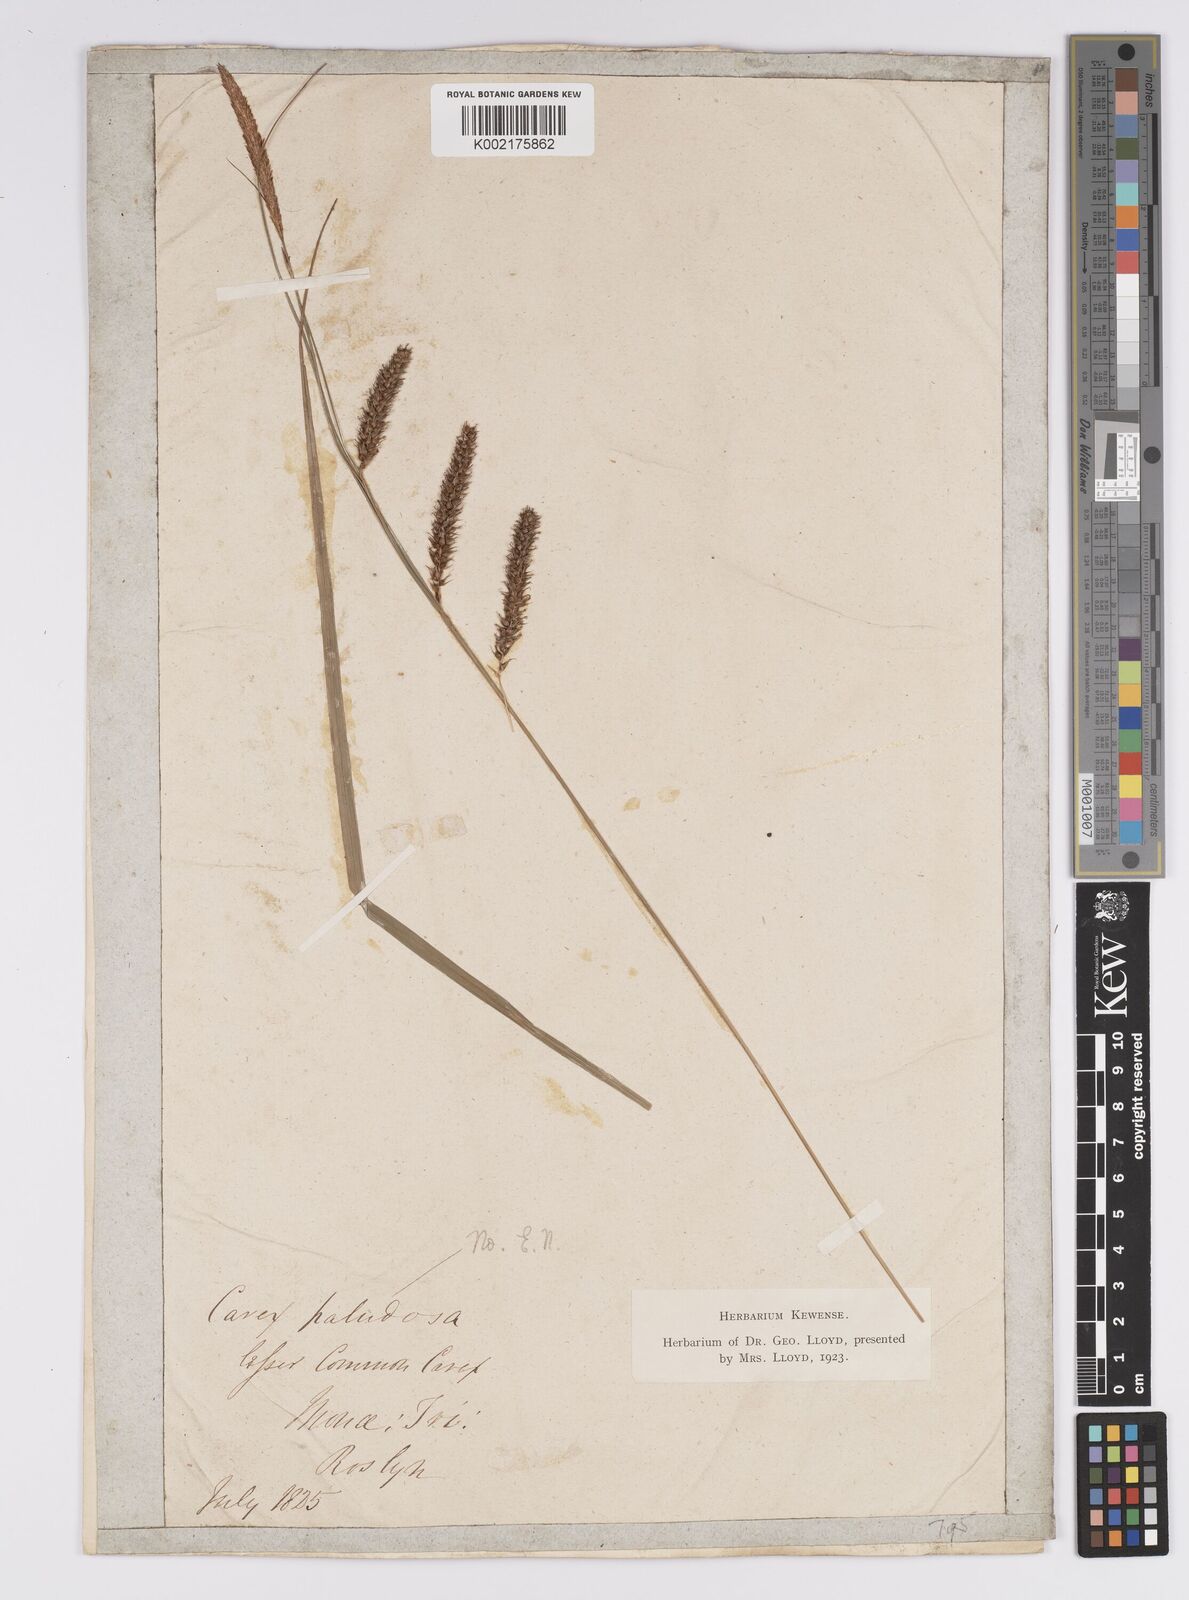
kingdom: Plantae
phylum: Tracheophyta
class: Liliopsida
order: Poales
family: Cyperaceae
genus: Carex
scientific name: Carex laevigata
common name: Smooth-stalked sedge
